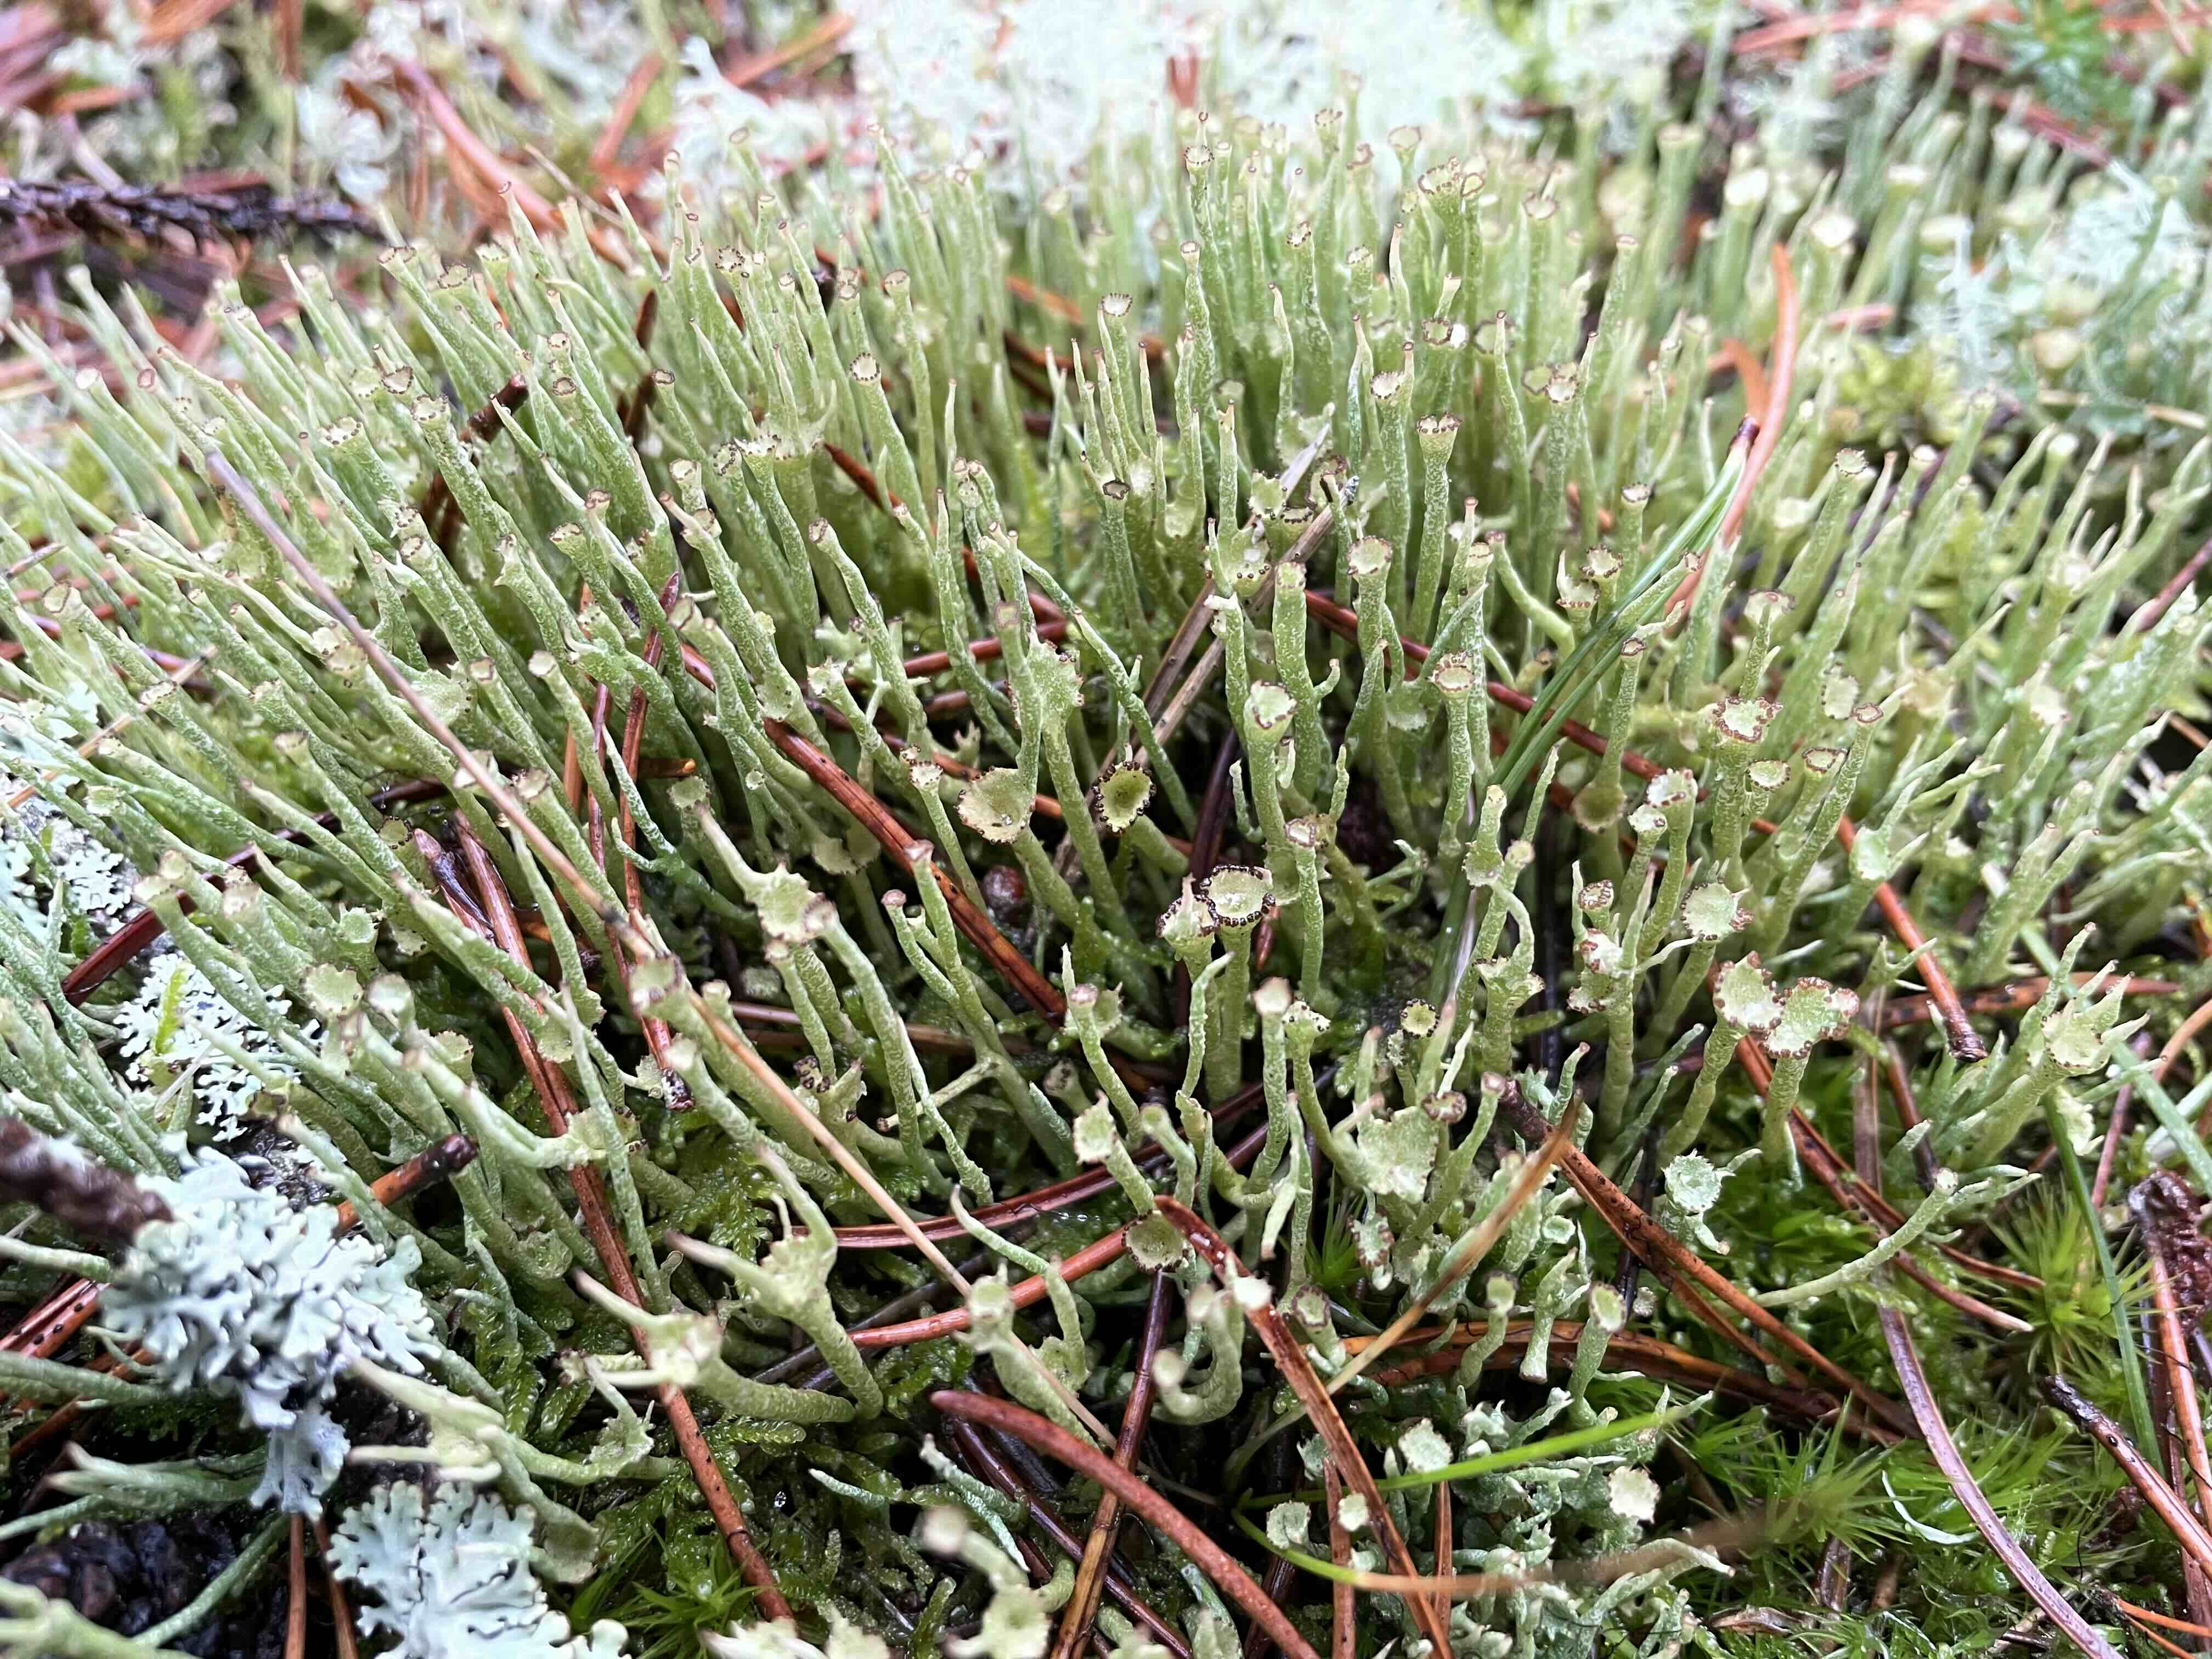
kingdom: Fungi
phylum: Ascomycota
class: Lecanoromycetes
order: Lecanorales
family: Cladoniaceae
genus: Cladonia
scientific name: Cladonia gracilis
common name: slank bægerlav
